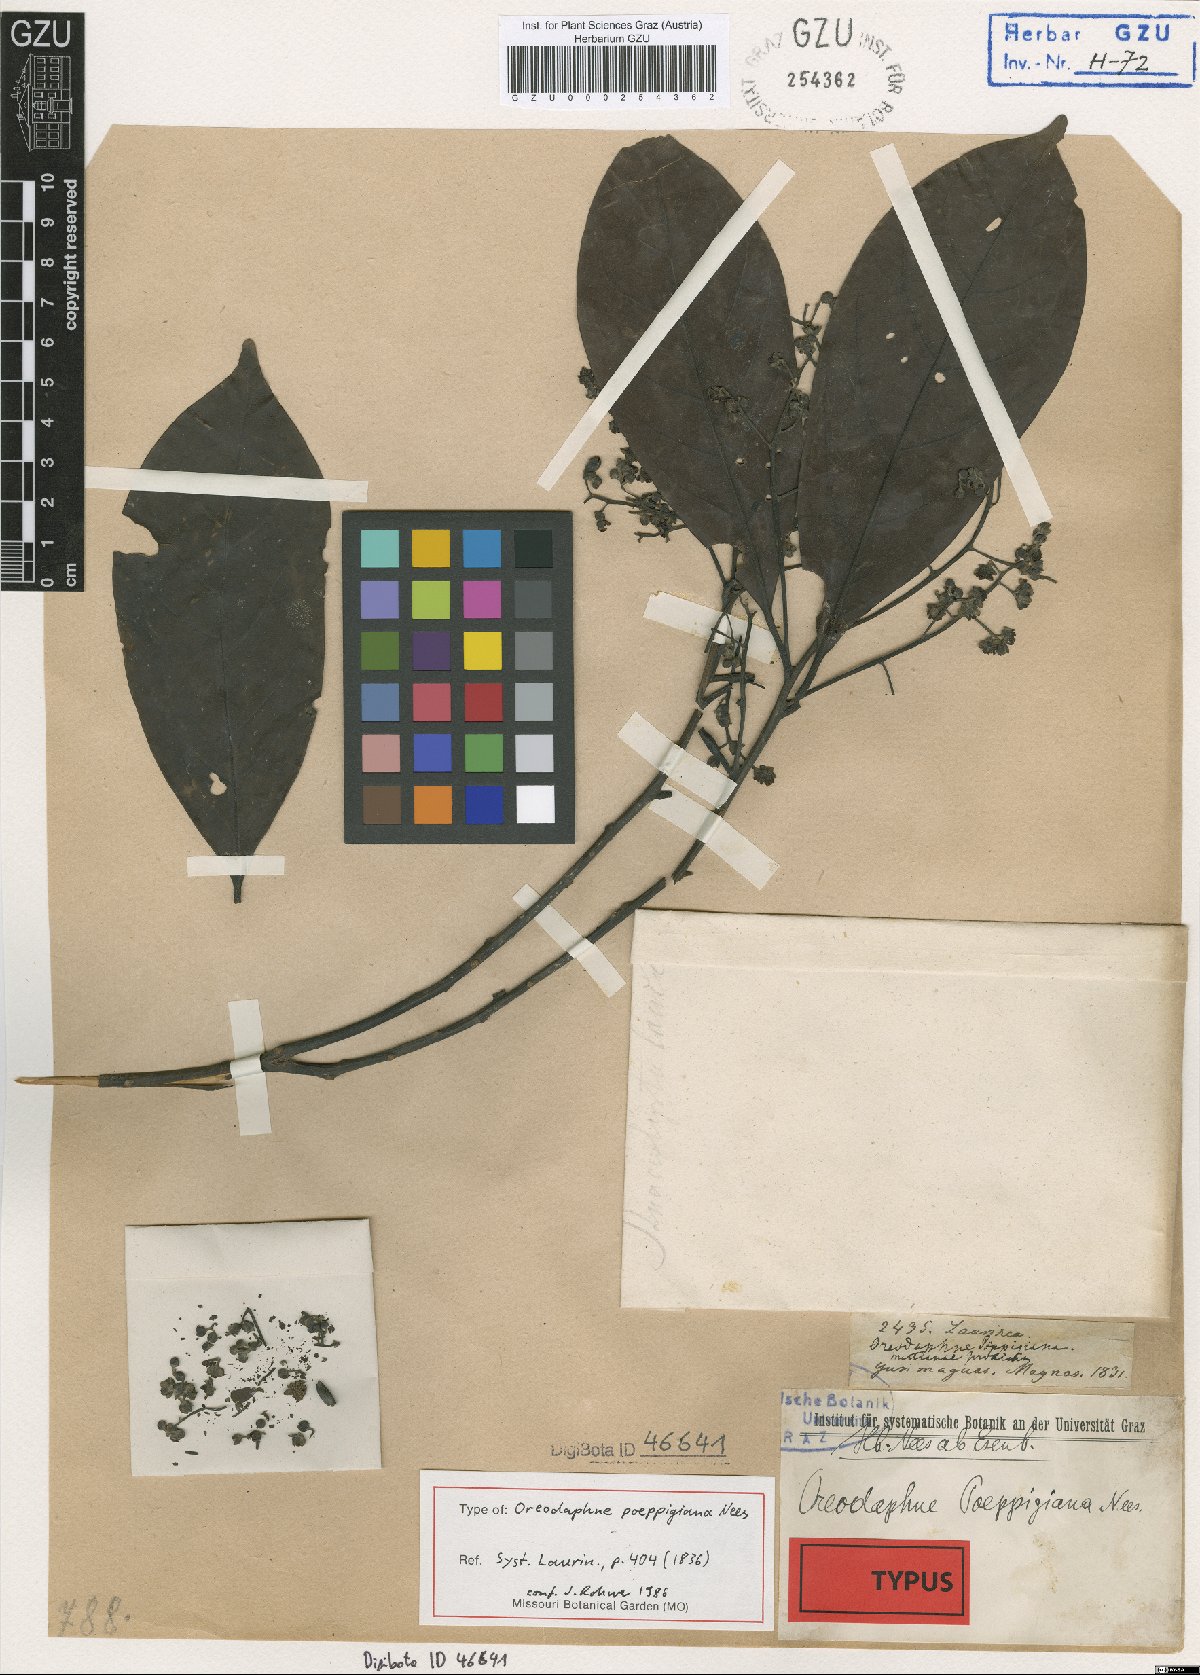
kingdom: Plantae
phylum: Tracheophyta
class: Magnoliopsida
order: Laurales
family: Lauraceae
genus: Ocotea
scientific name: Ocotea floribunda
